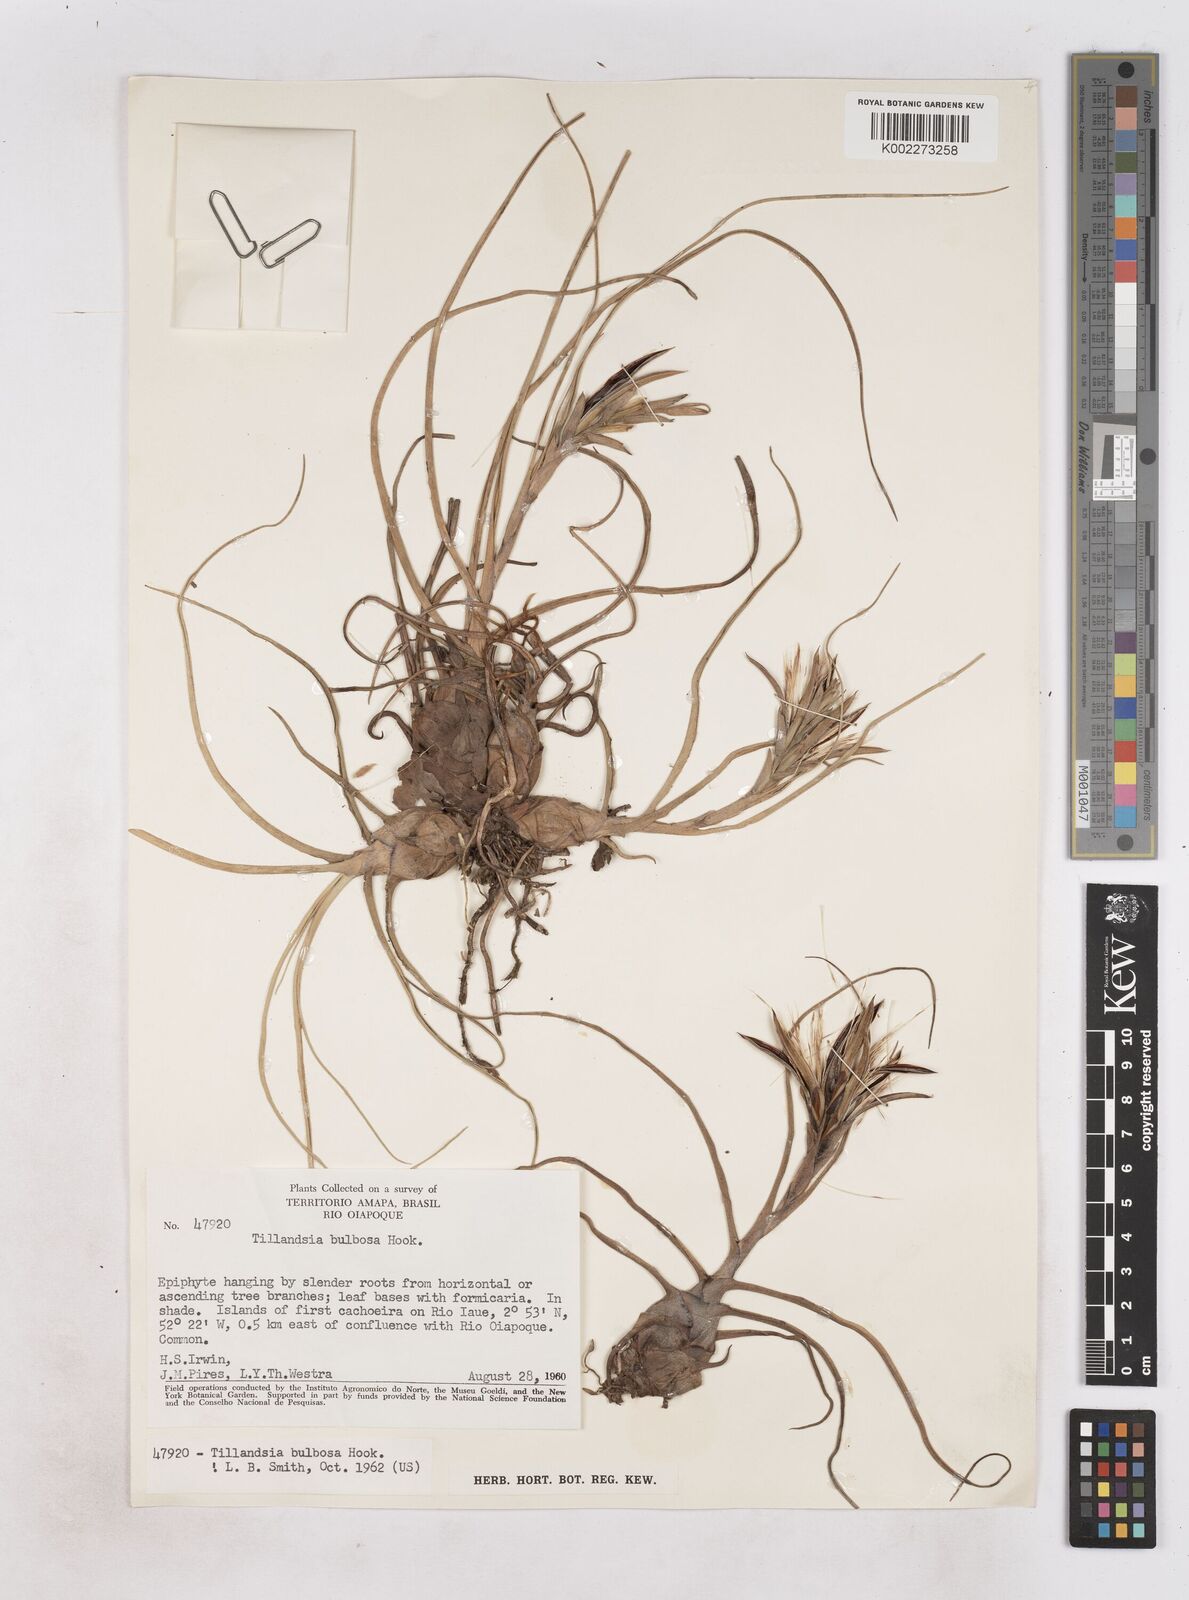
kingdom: Plantae
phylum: Tracheophyta
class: Liliopsida
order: Poales
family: Bromeliaceae
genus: Tillandsia
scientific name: Tillandsia bulbosa
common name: Bulbous airplant
